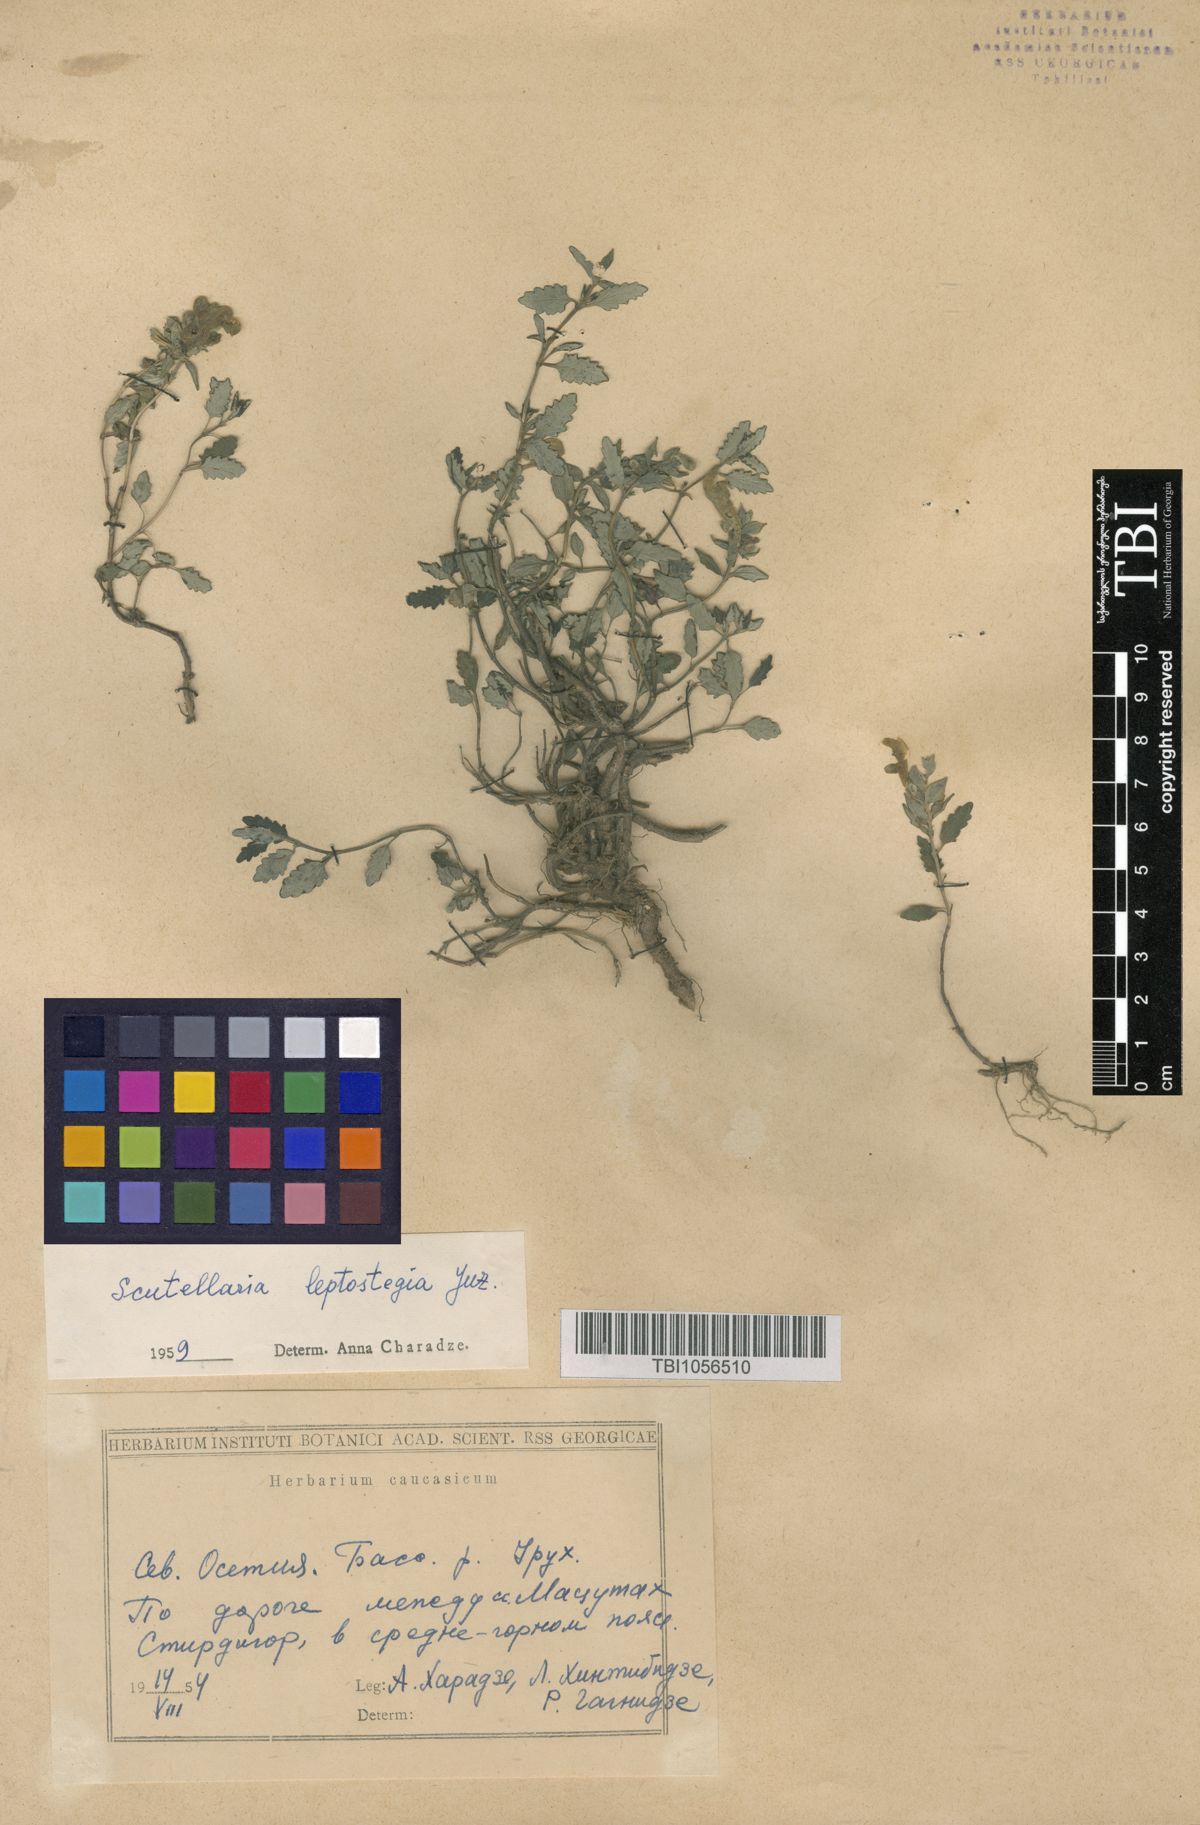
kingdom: Plantae
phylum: Tracheophyta
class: Magnoliopsida
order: Lamiales
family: Lamiaceae
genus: Scutellaria
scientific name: Scutellaria leptostegia
